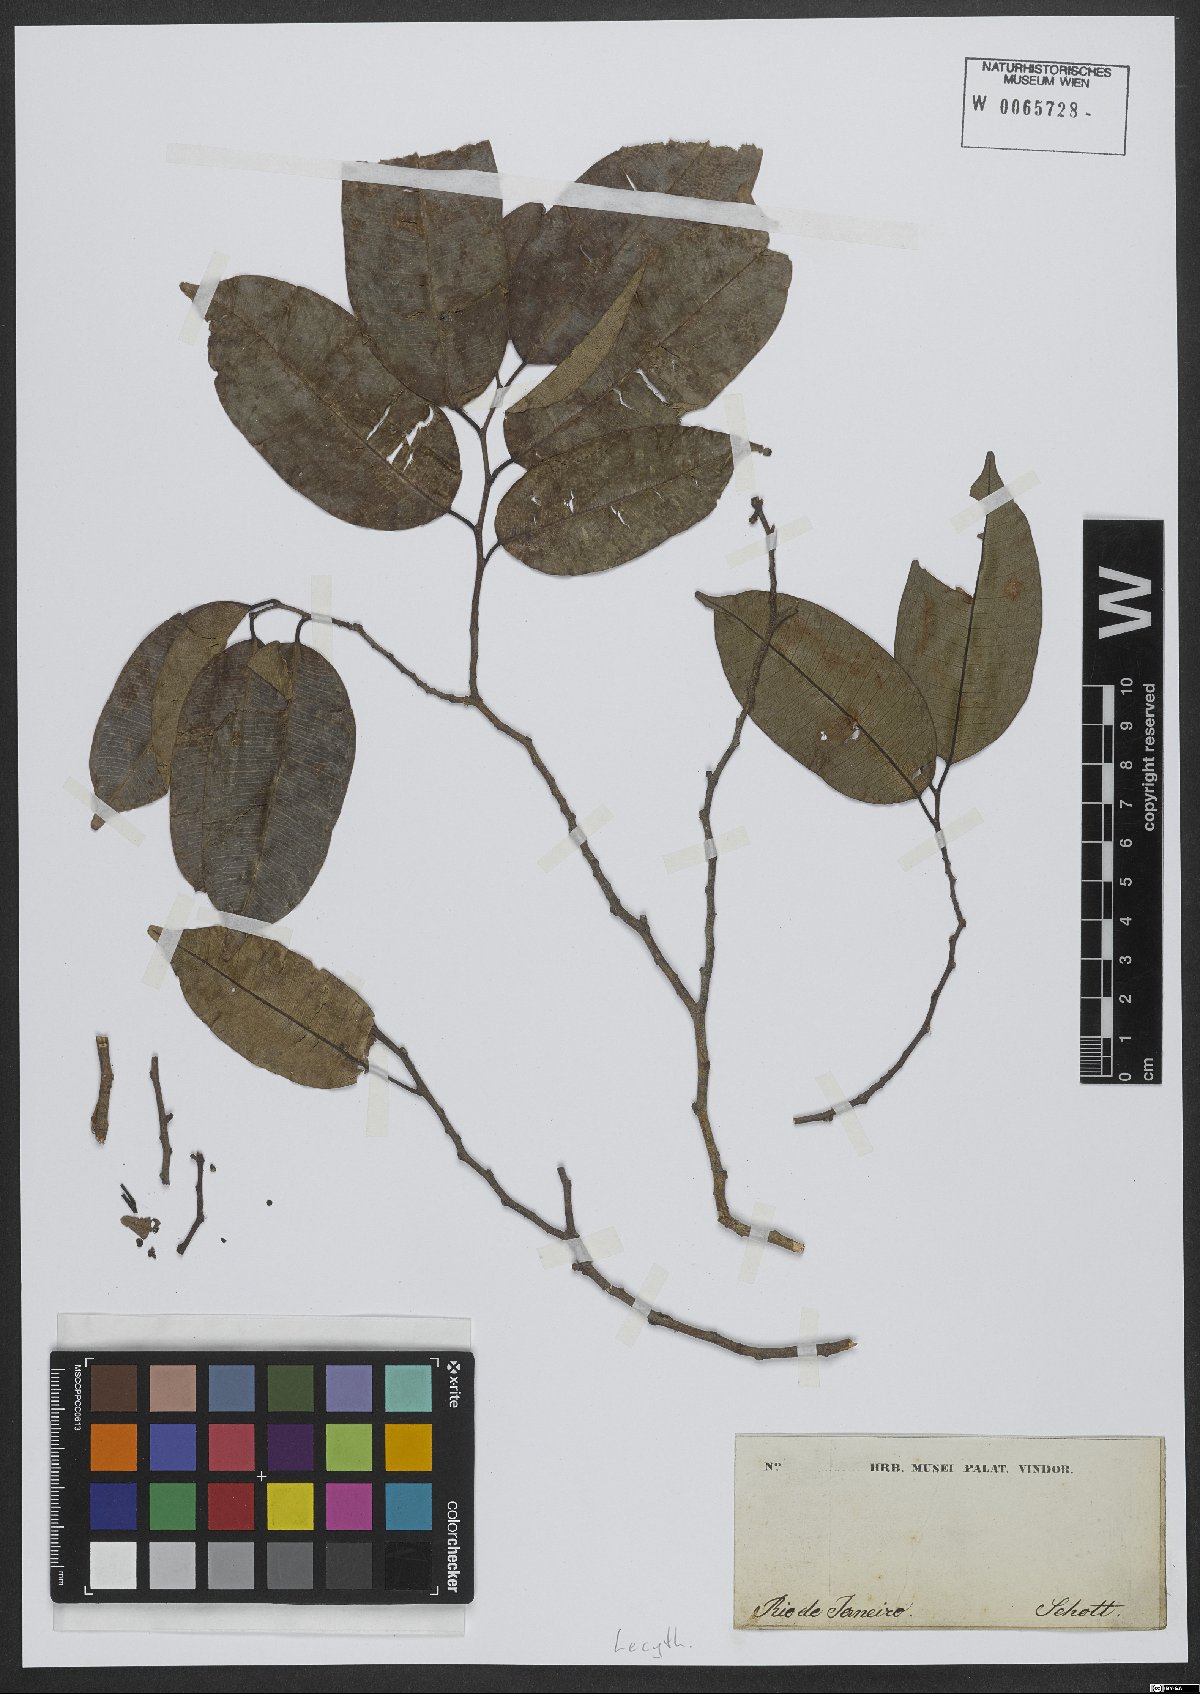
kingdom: Plantae
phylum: Tracheophyta
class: Magnoliopsida
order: Ericales
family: Lecythidaceae
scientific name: Lecythidaceae
